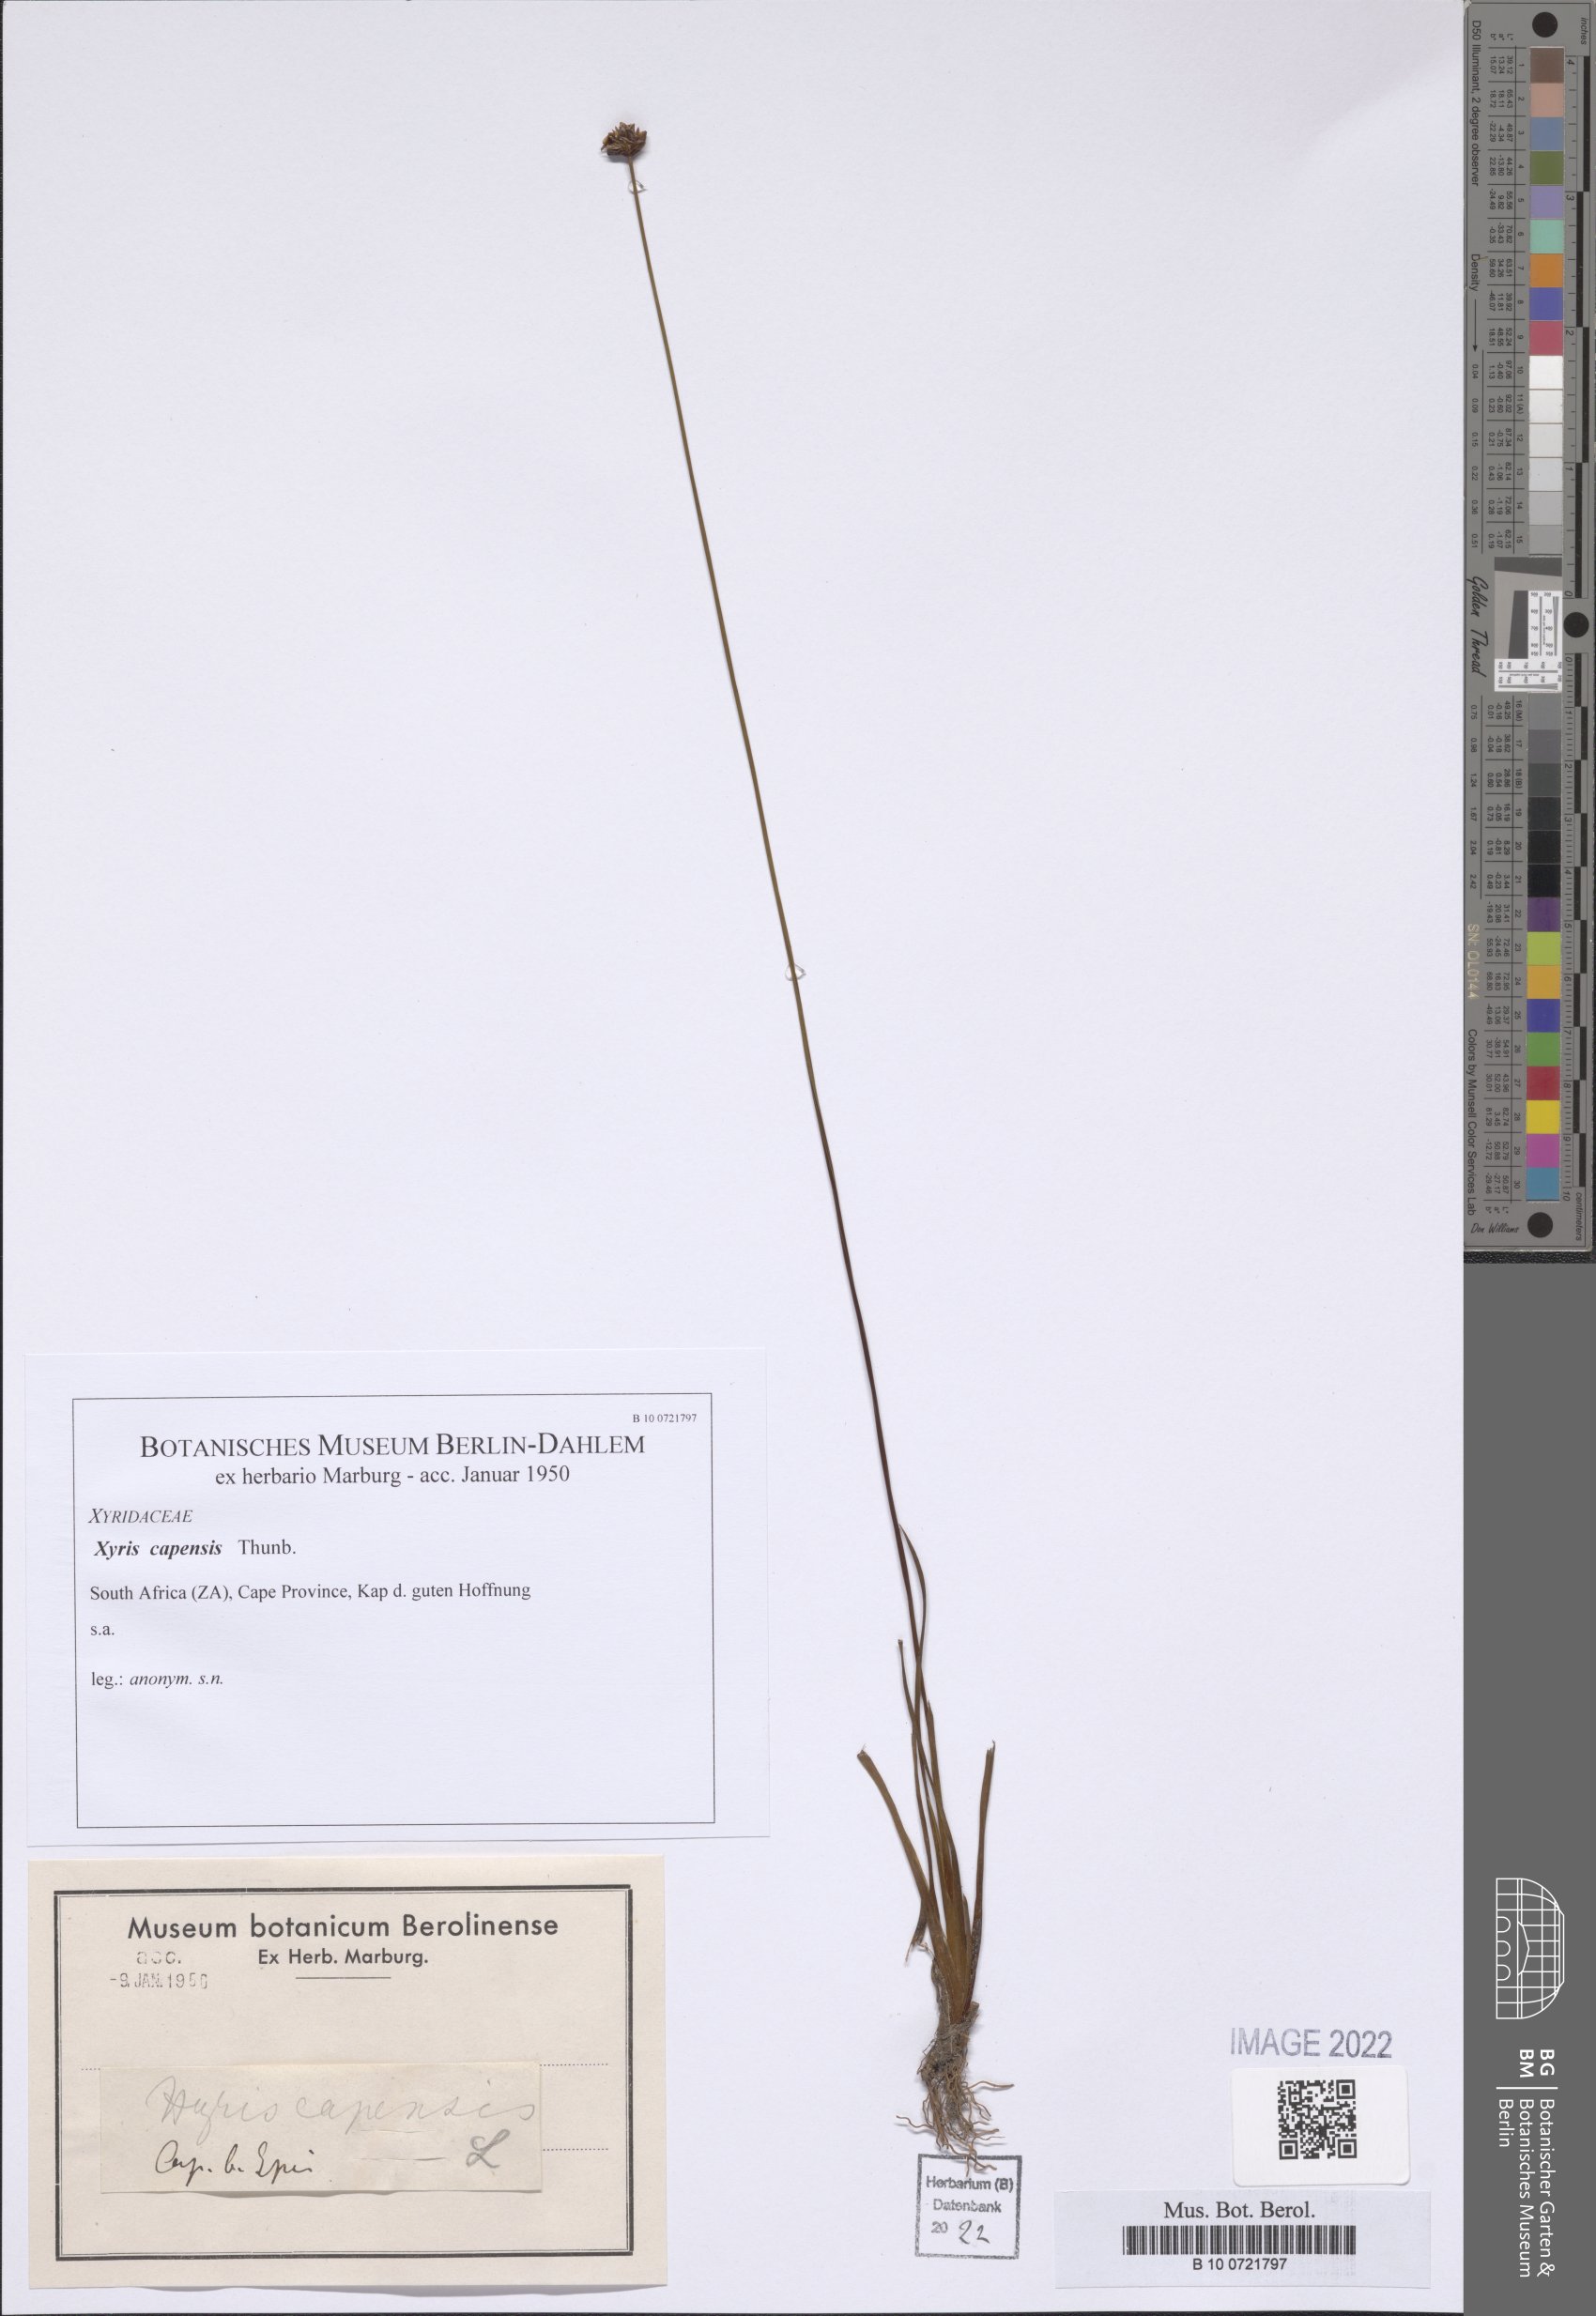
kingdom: Plantae
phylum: Tracheophyta
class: Liliopsida
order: Poales
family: Xyridaceae
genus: Xyris
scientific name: Xyris capensis
